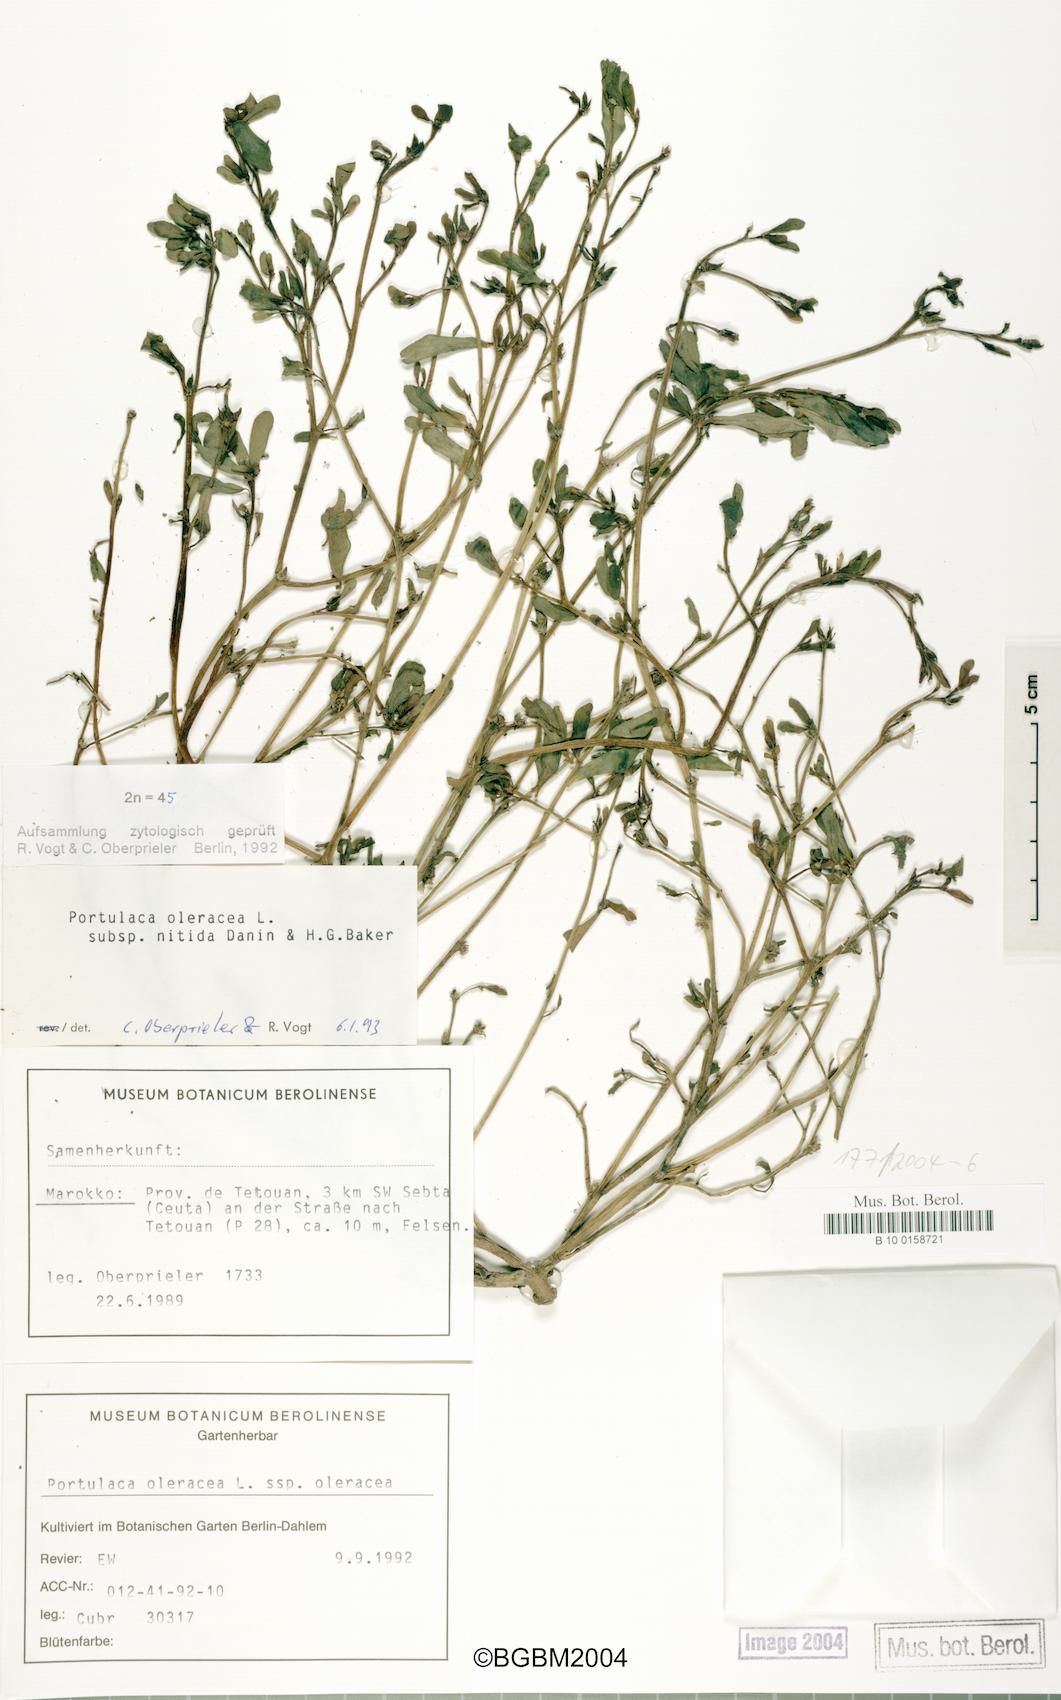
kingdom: Plantae
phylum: Tracheophyta
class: Magnoliopsida
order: Caryophyllales
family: Portulacaceae
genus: Portulaca
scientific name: Portulaca oleracea
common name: Common purslane
